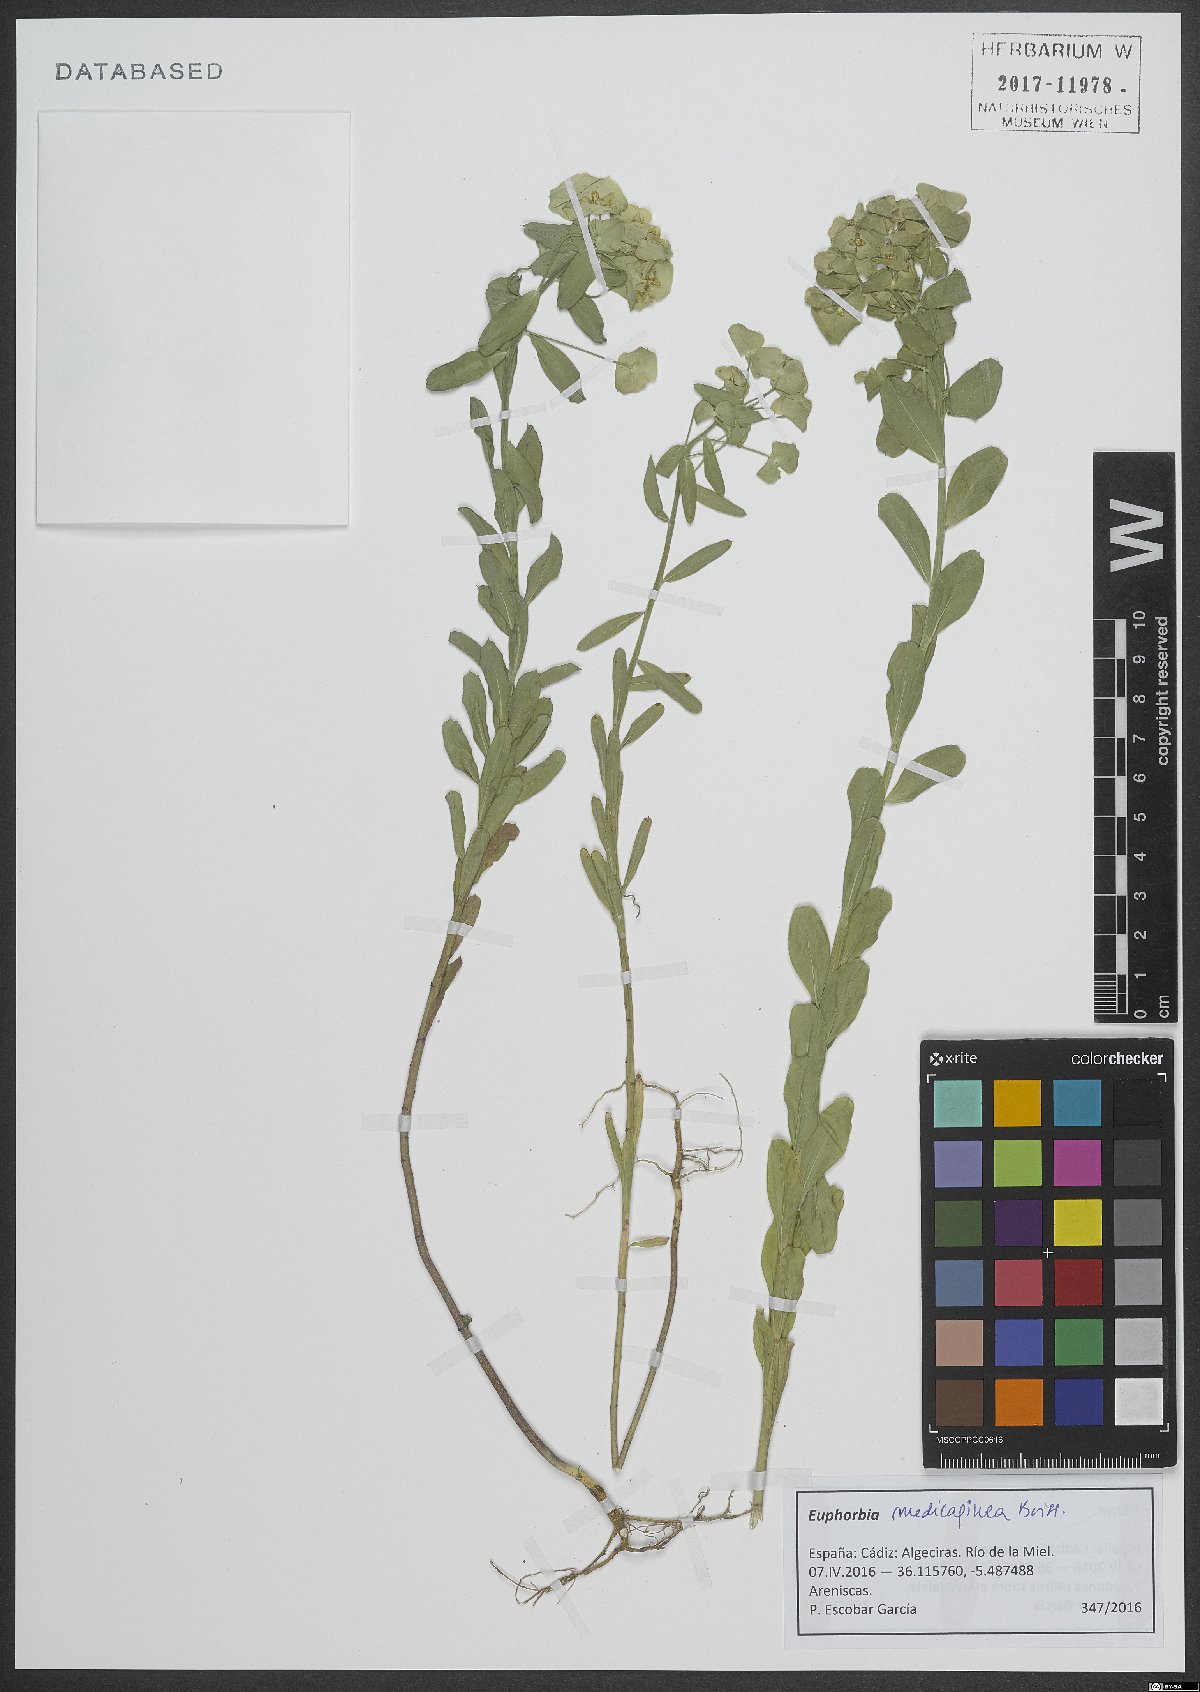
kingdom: Plantae
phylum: Tracheophyta
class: Magnoliopsida
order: Malpighiales
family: Euphorbiaceae
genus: Euphorbia
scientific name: Euphorbia medicaginea
